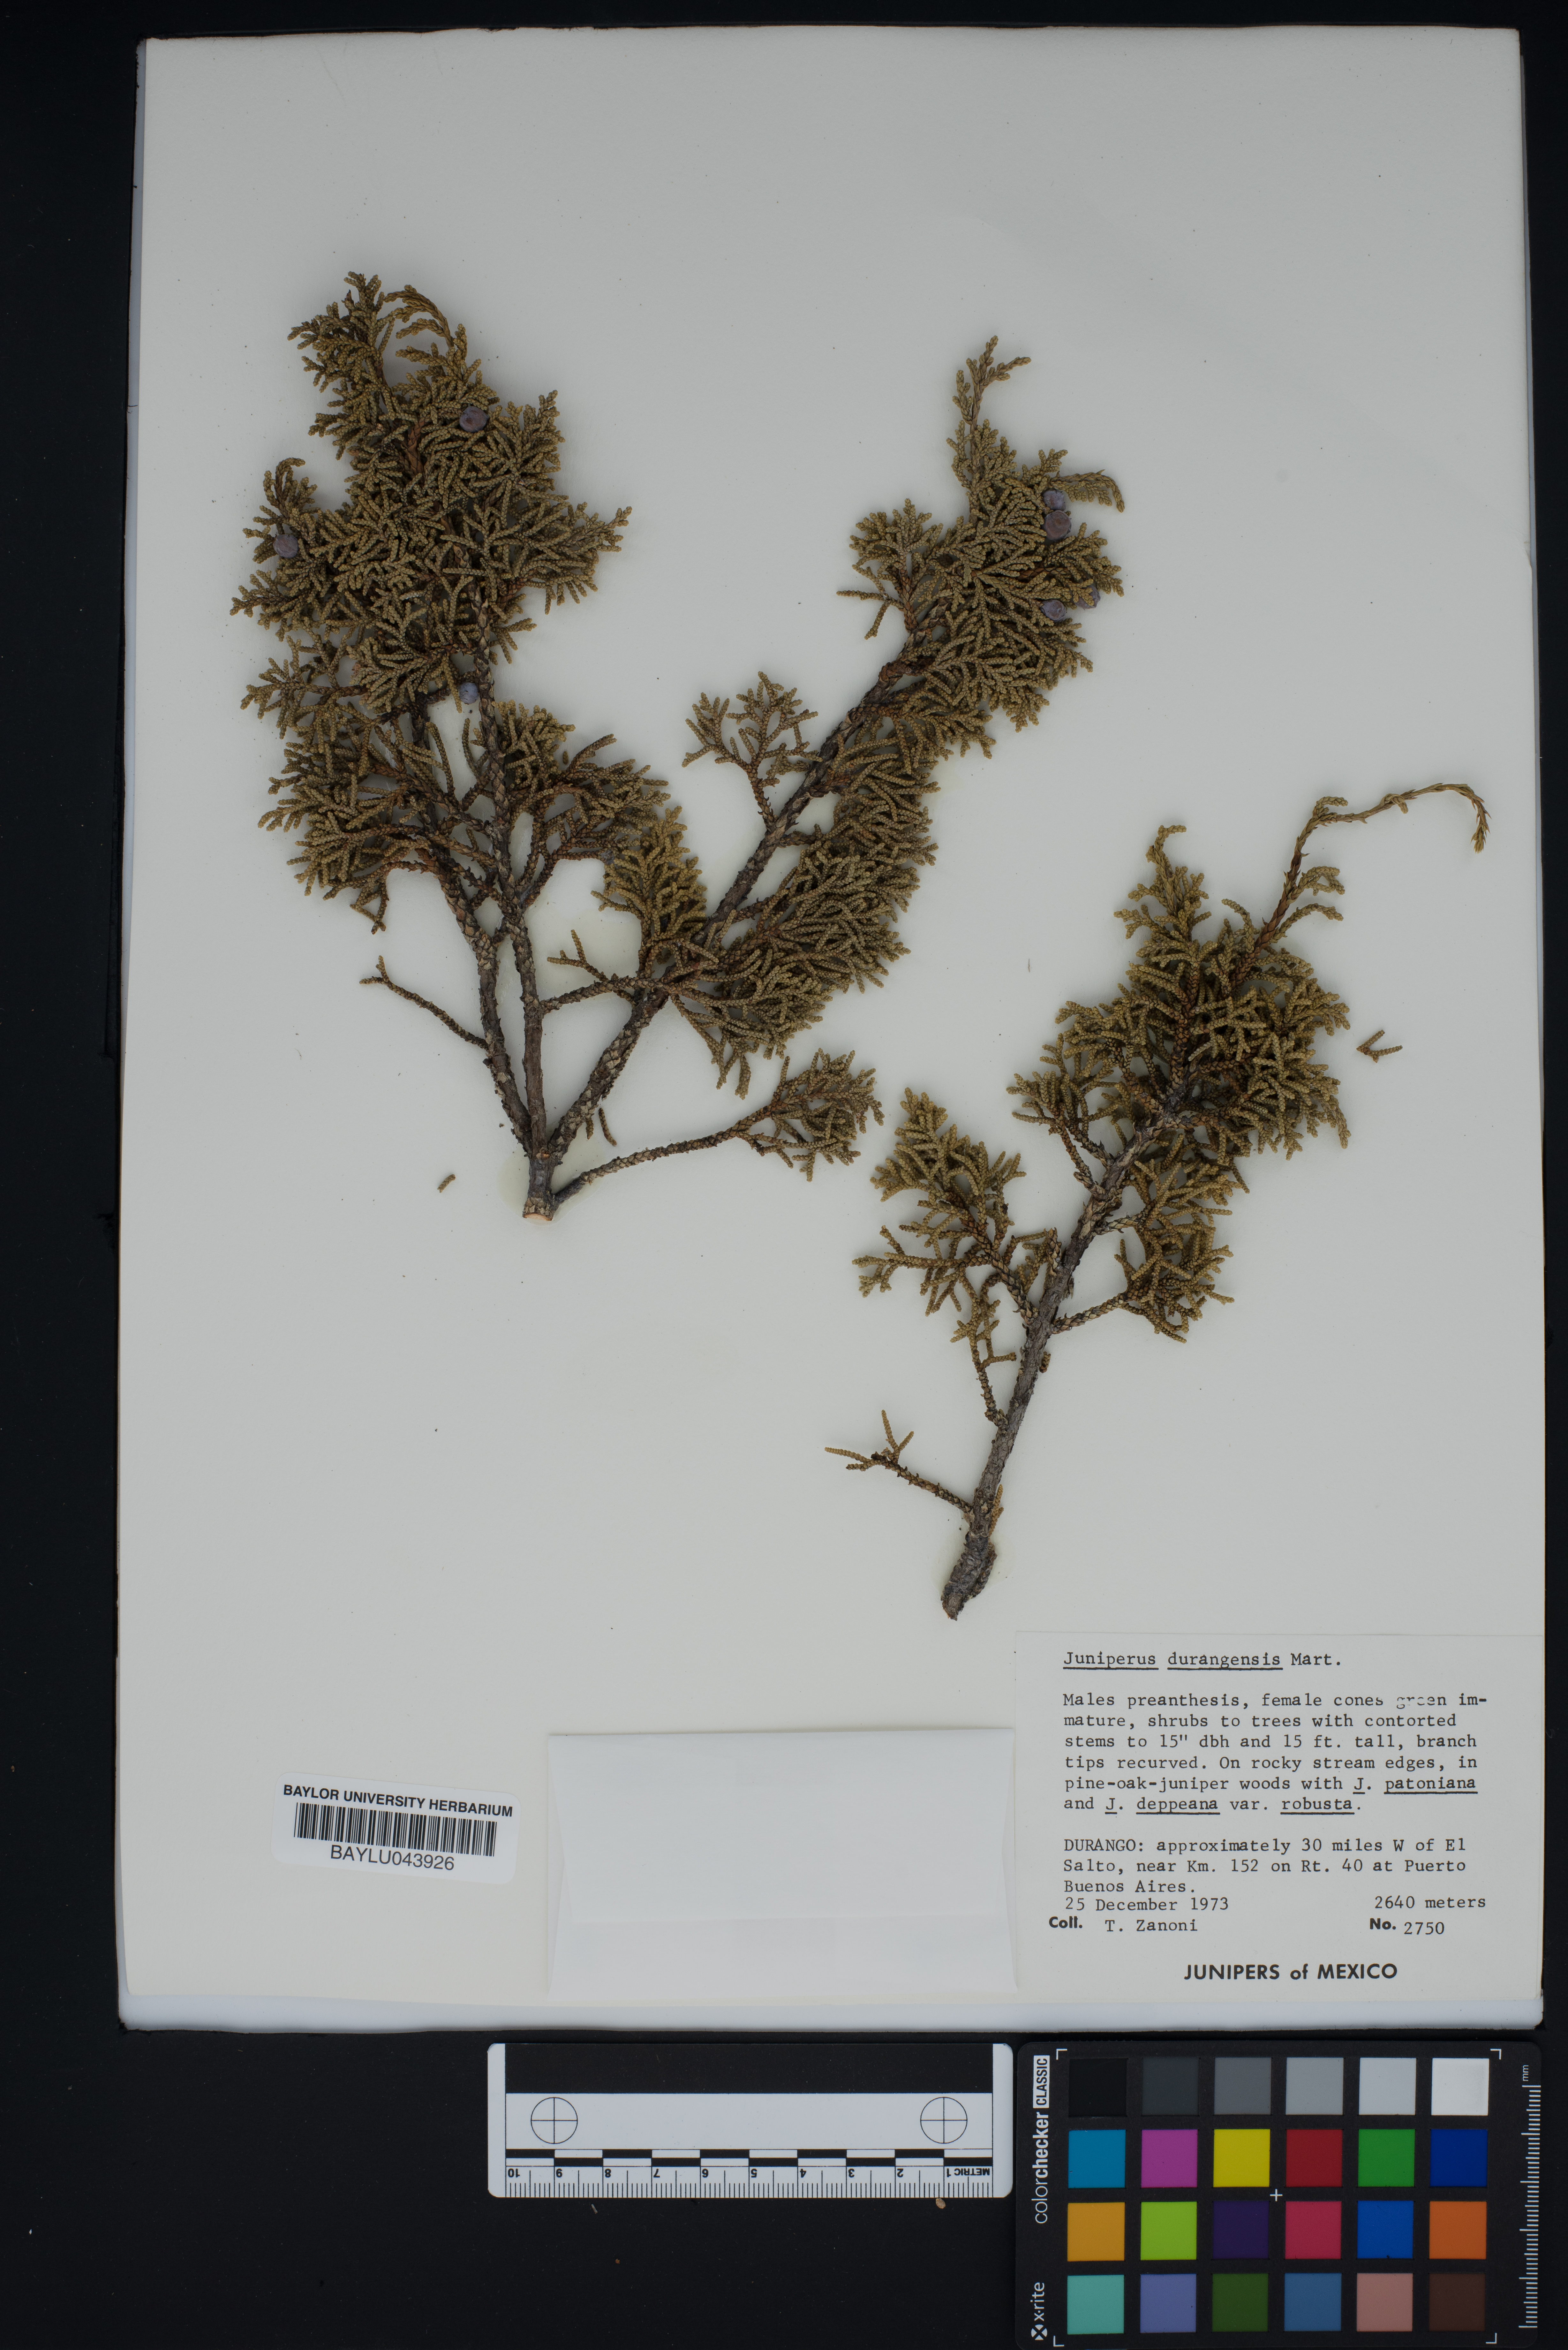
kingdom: Plantae
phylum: Tracheophyta
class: Pinopsida
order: Pinales
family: Cupressaceae
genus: Juniperus
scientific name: Juniperus durangensis
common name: Durango juniper
